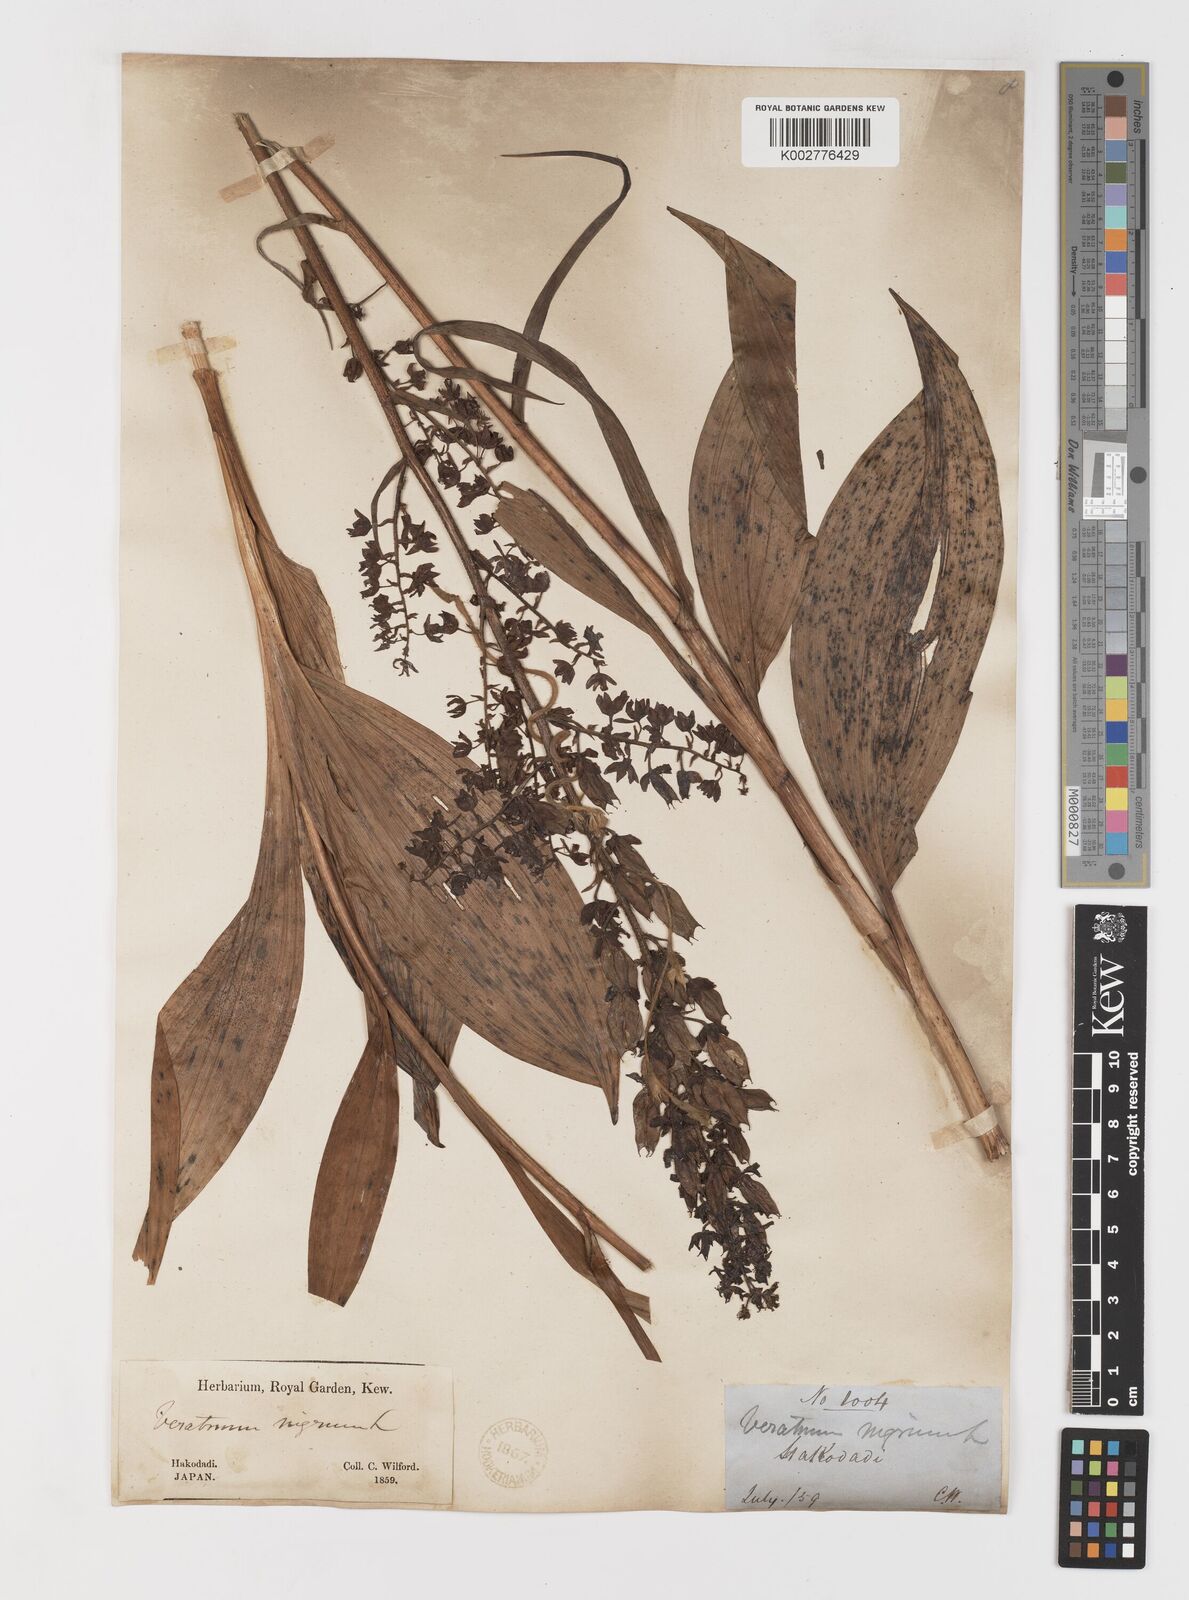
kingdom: Plantae
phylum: Tracheophyta
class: Liliopsida
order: Liliales
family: Melanthiaceae
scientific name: Melanthiaceae
